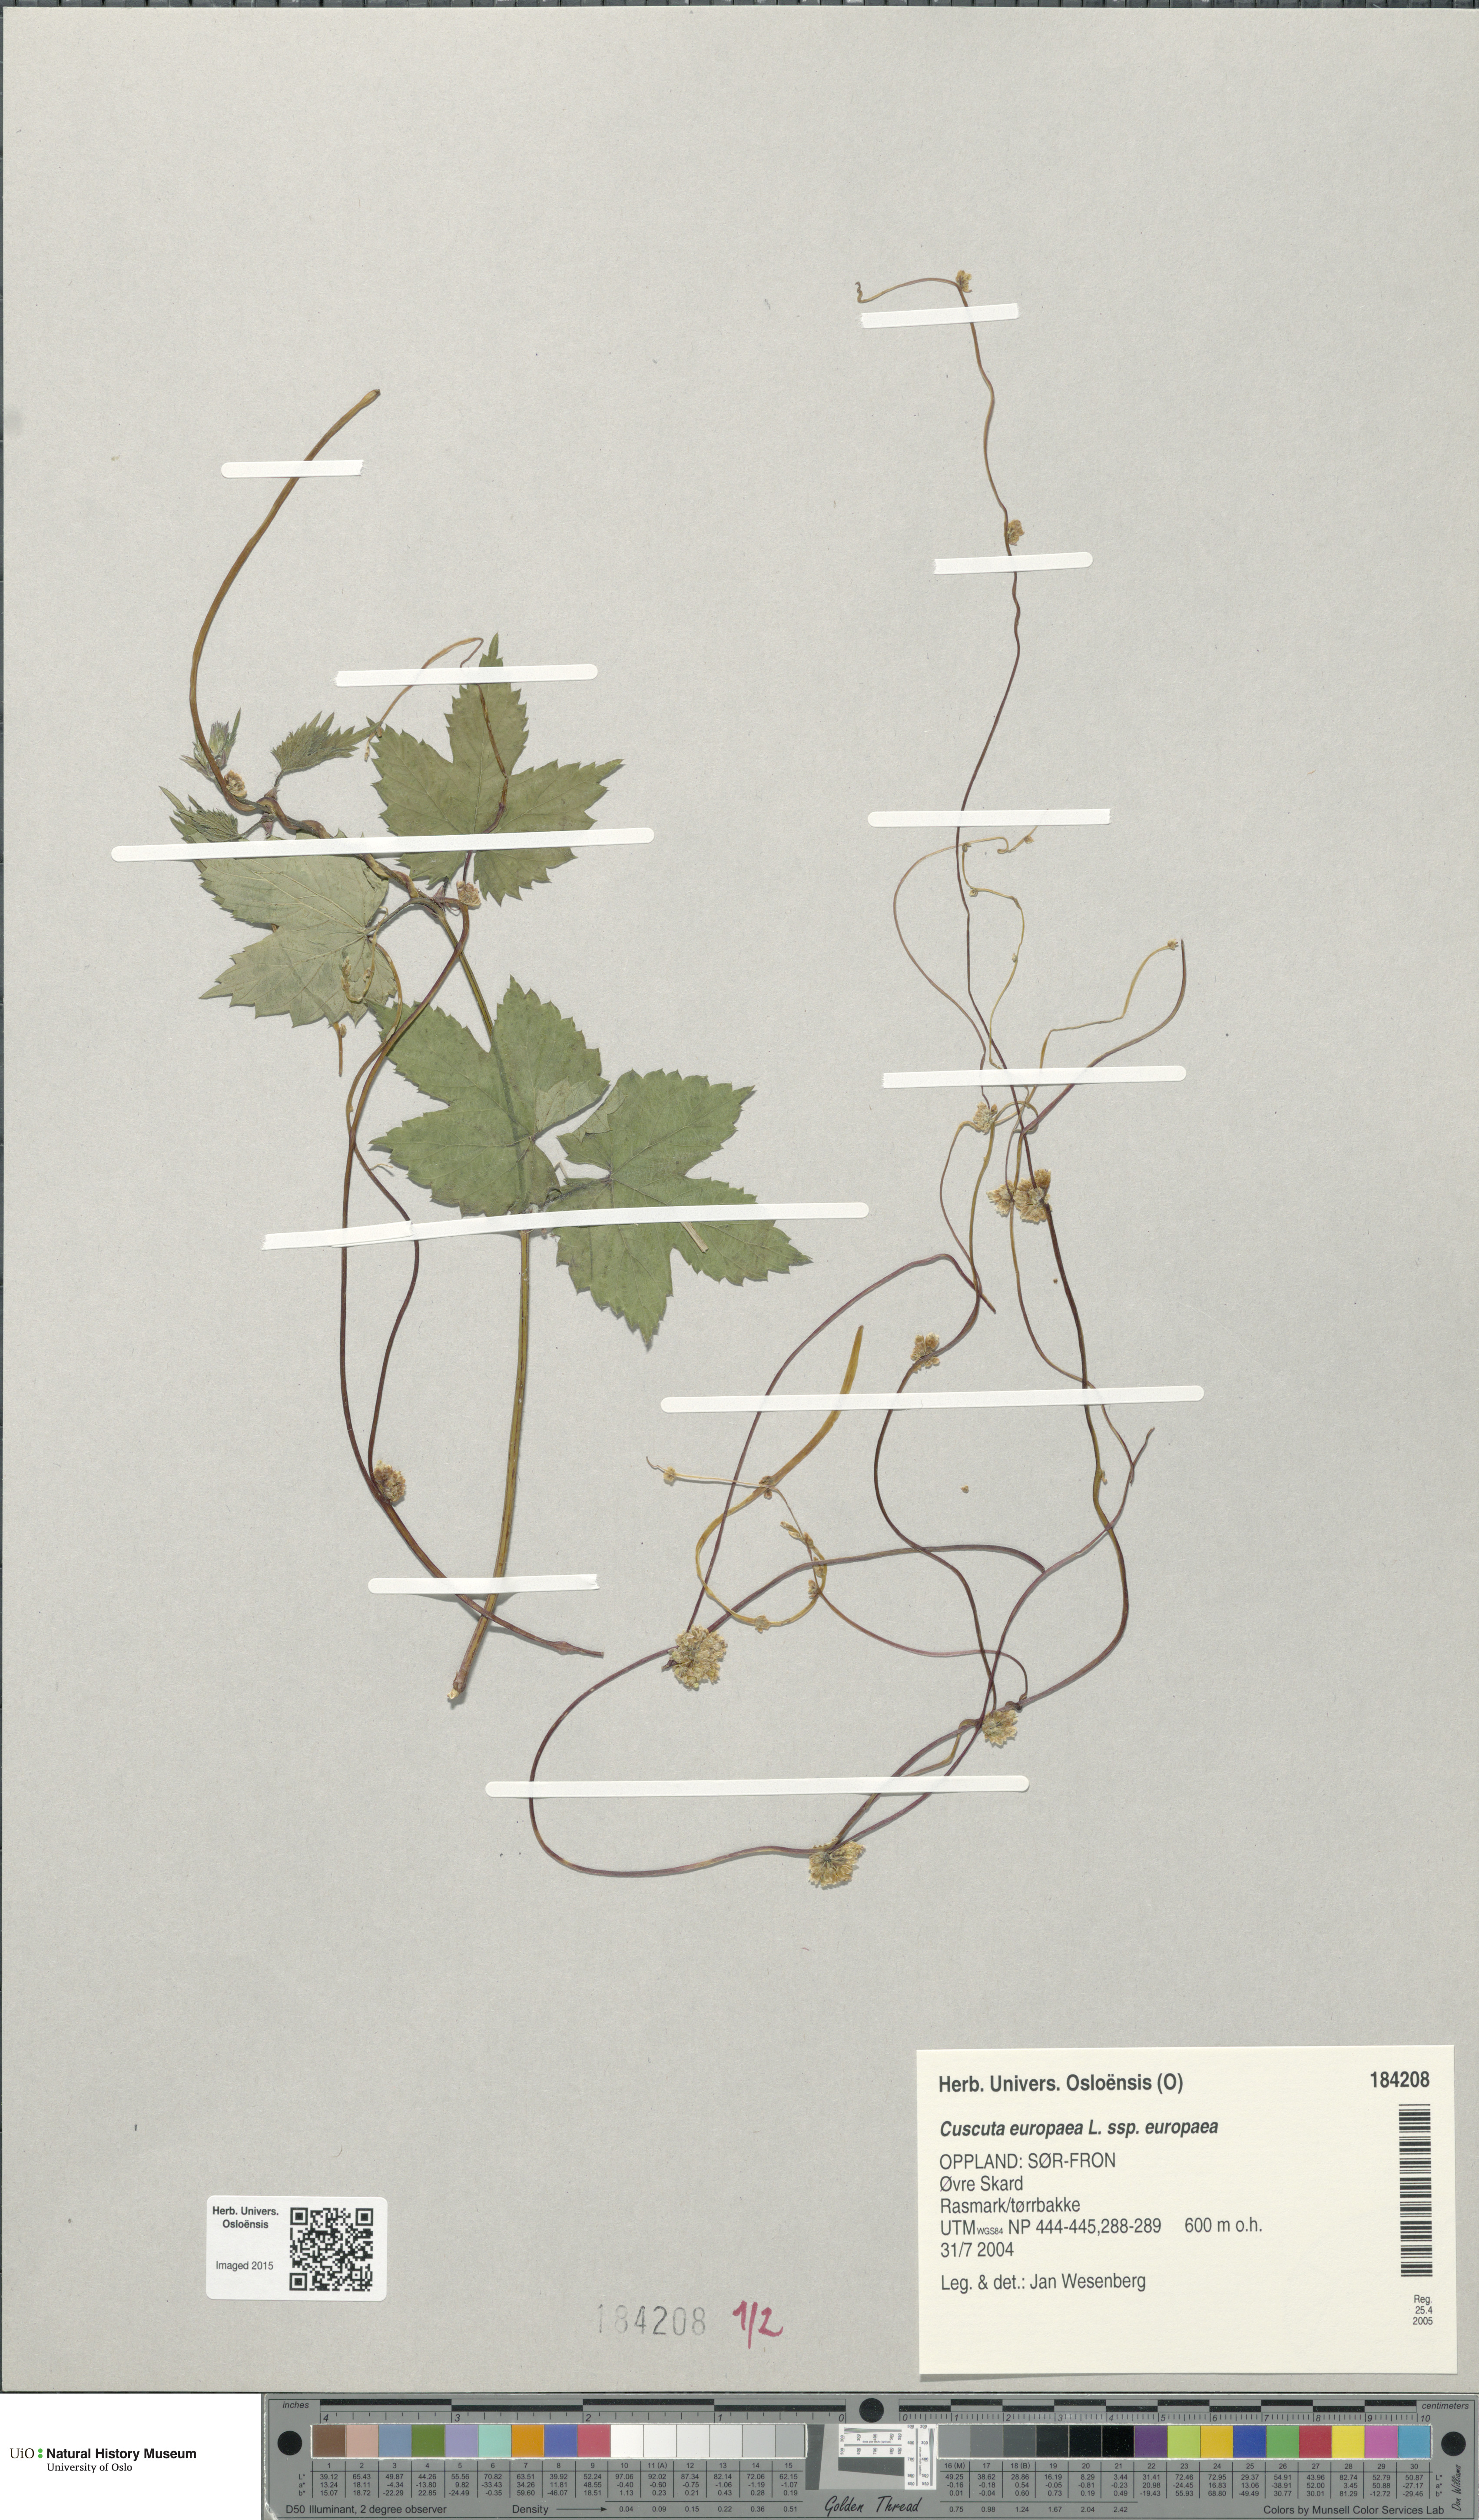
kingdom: Plantae
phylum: Tracheophyta
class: Magnoliopsida
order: Solanales
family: Convolvulaceae
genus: Cuscuta
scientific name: Cuscuta europaea
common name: Greater dodder
